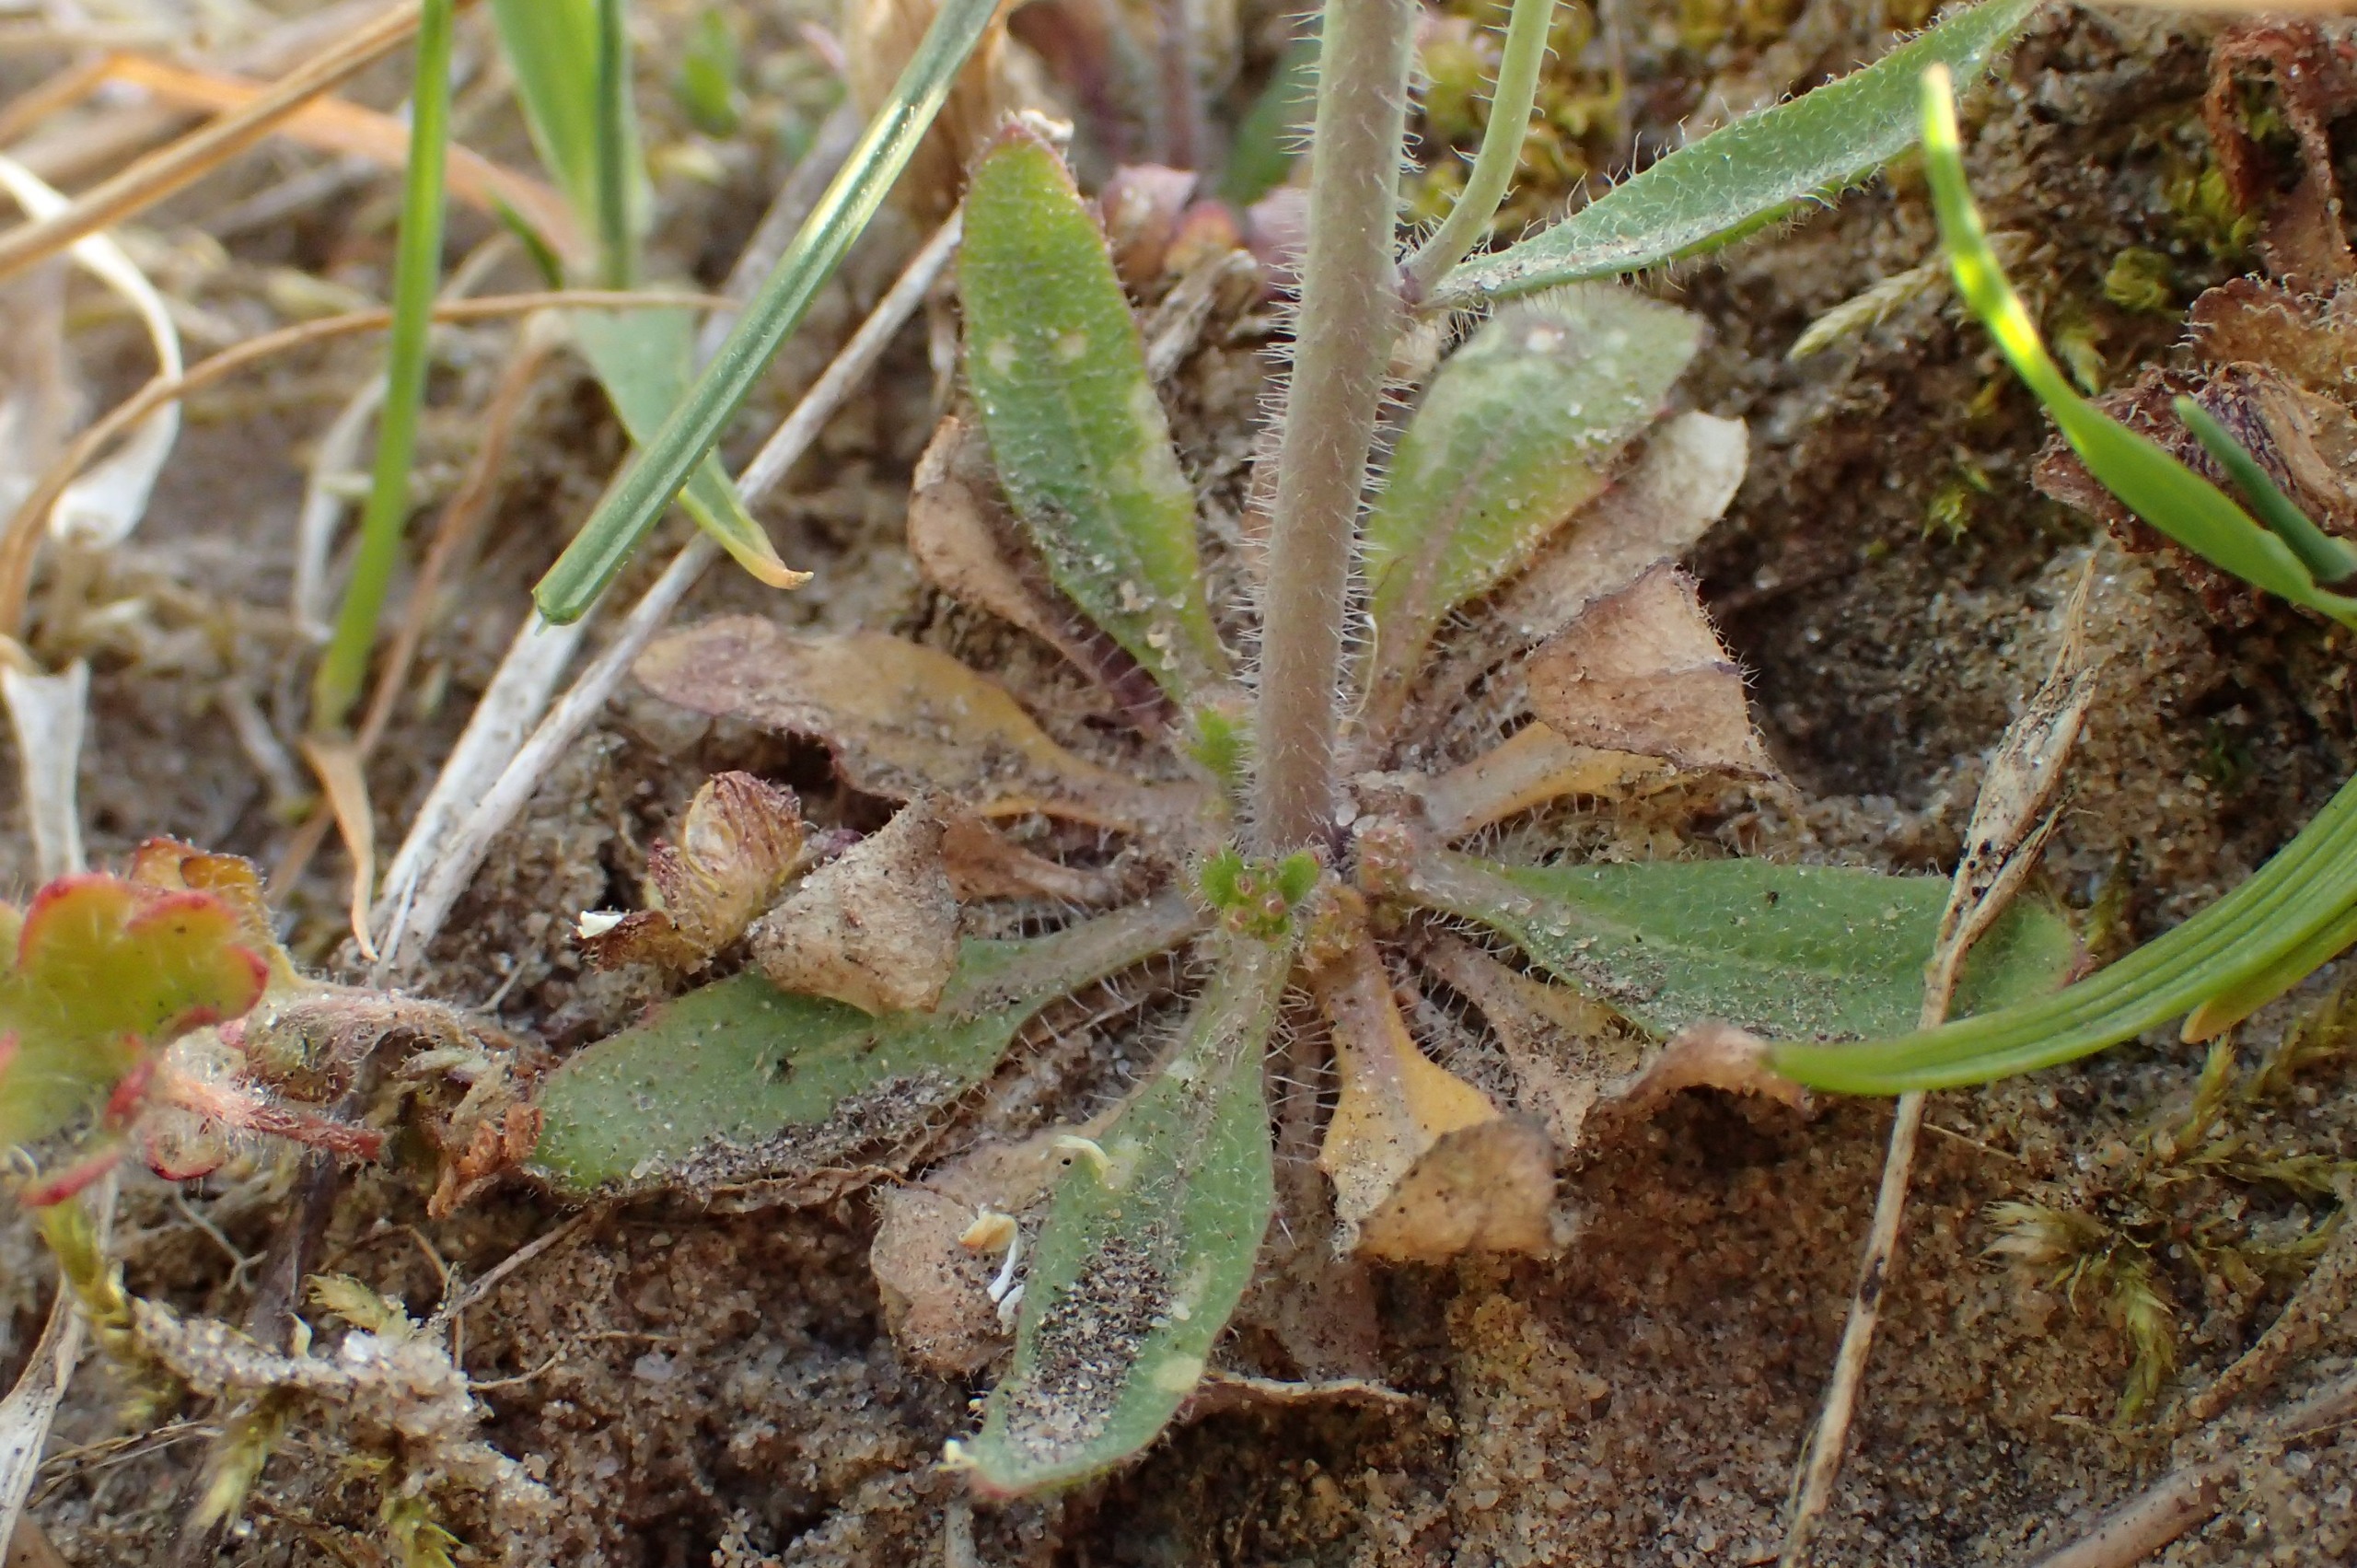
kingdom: Plantae
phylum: Tracheophyta
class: Magnoliopsida
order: Brassicales
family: Brassicaceae
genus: Arabidopsis
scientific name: Arabidopsis thaliana
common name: Almindelig gåsemad
